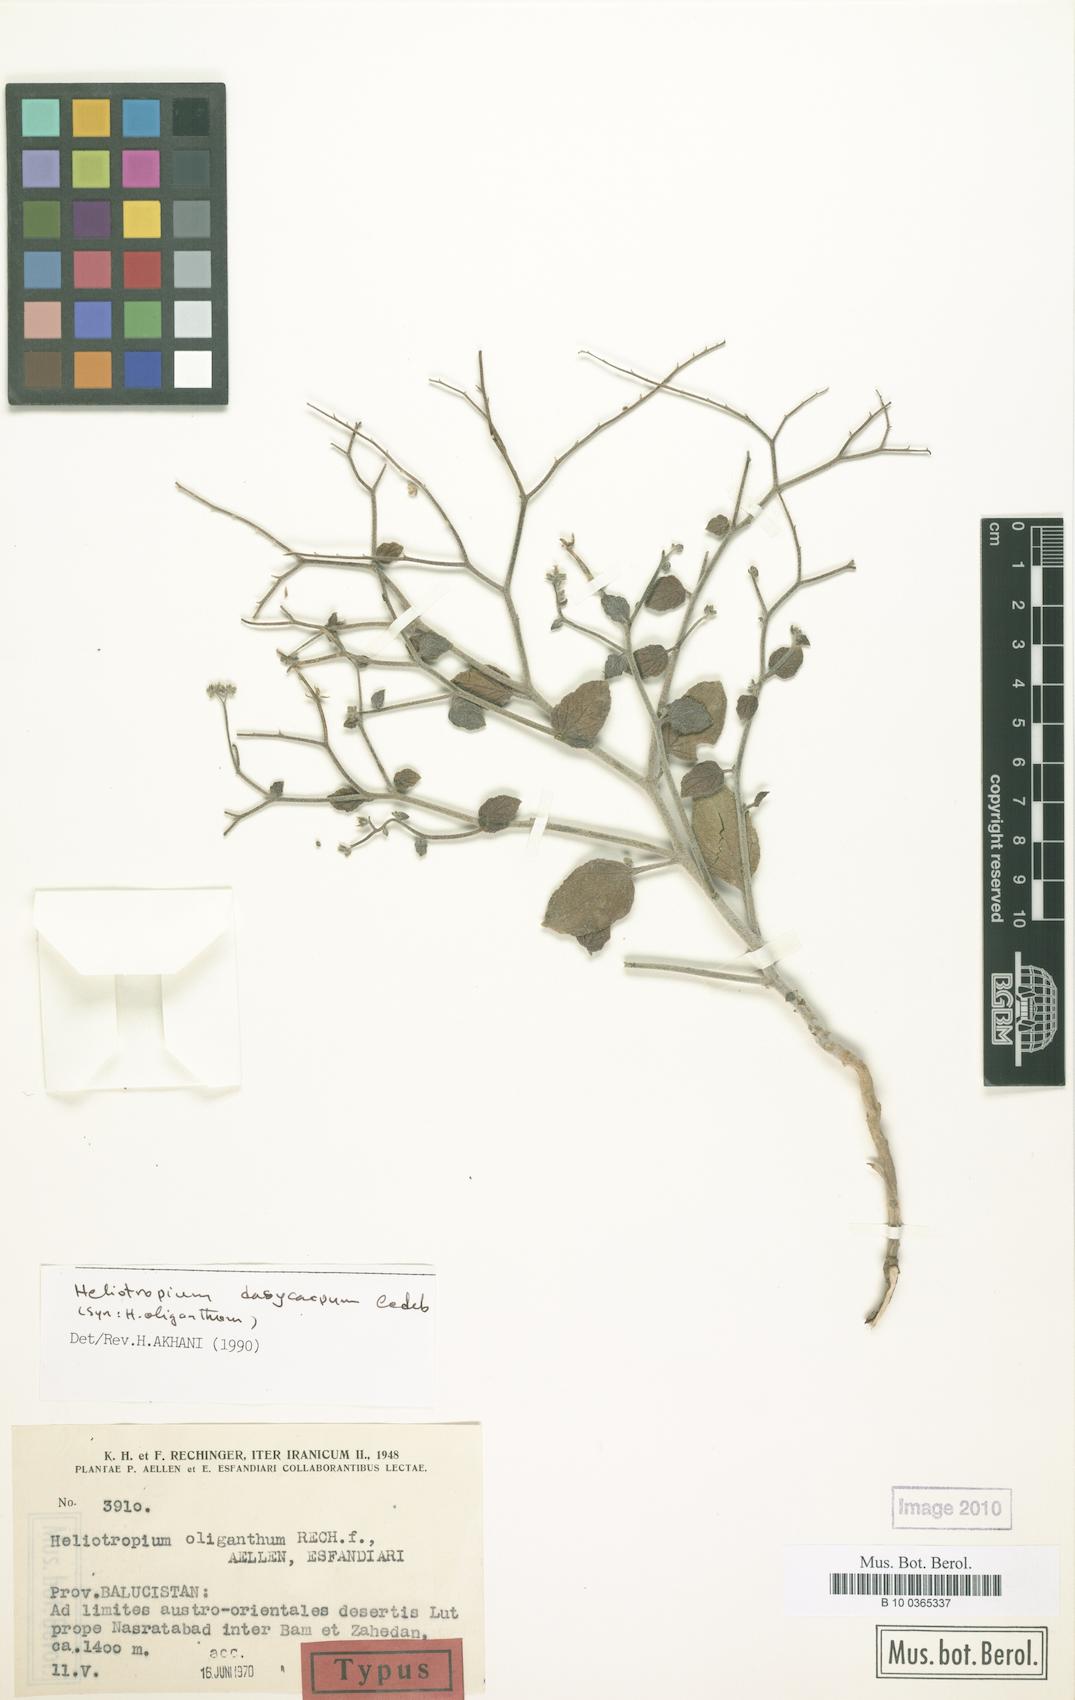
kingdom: Plantae
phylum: Tracheophyta
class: Magnoliopsida
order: Boraginales
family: Heliotropiaceae
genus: Heliotropium
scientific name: Heliotropium dasycarpum
